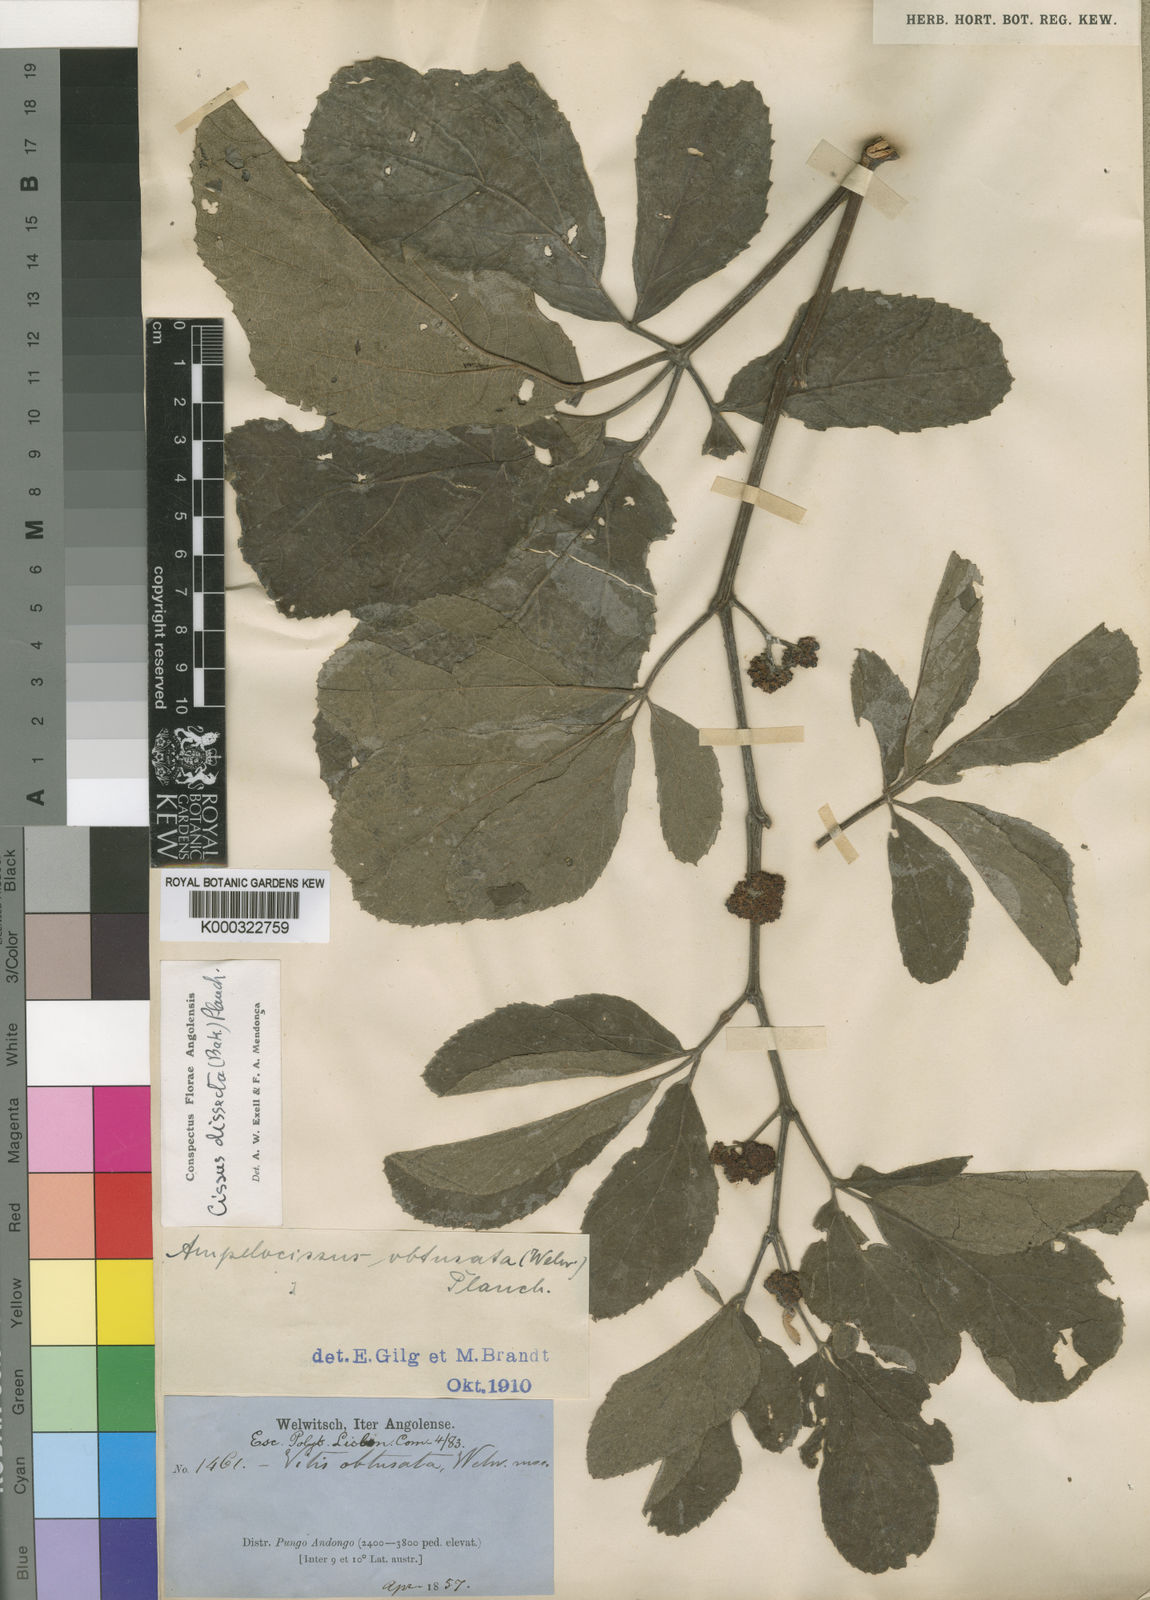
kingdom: Plantae
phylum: Tracheophyta
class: Magnoliopsida
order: Vitales
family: Vitaceae
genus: Ampelocissus
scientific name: Ampelocissus obtusata
